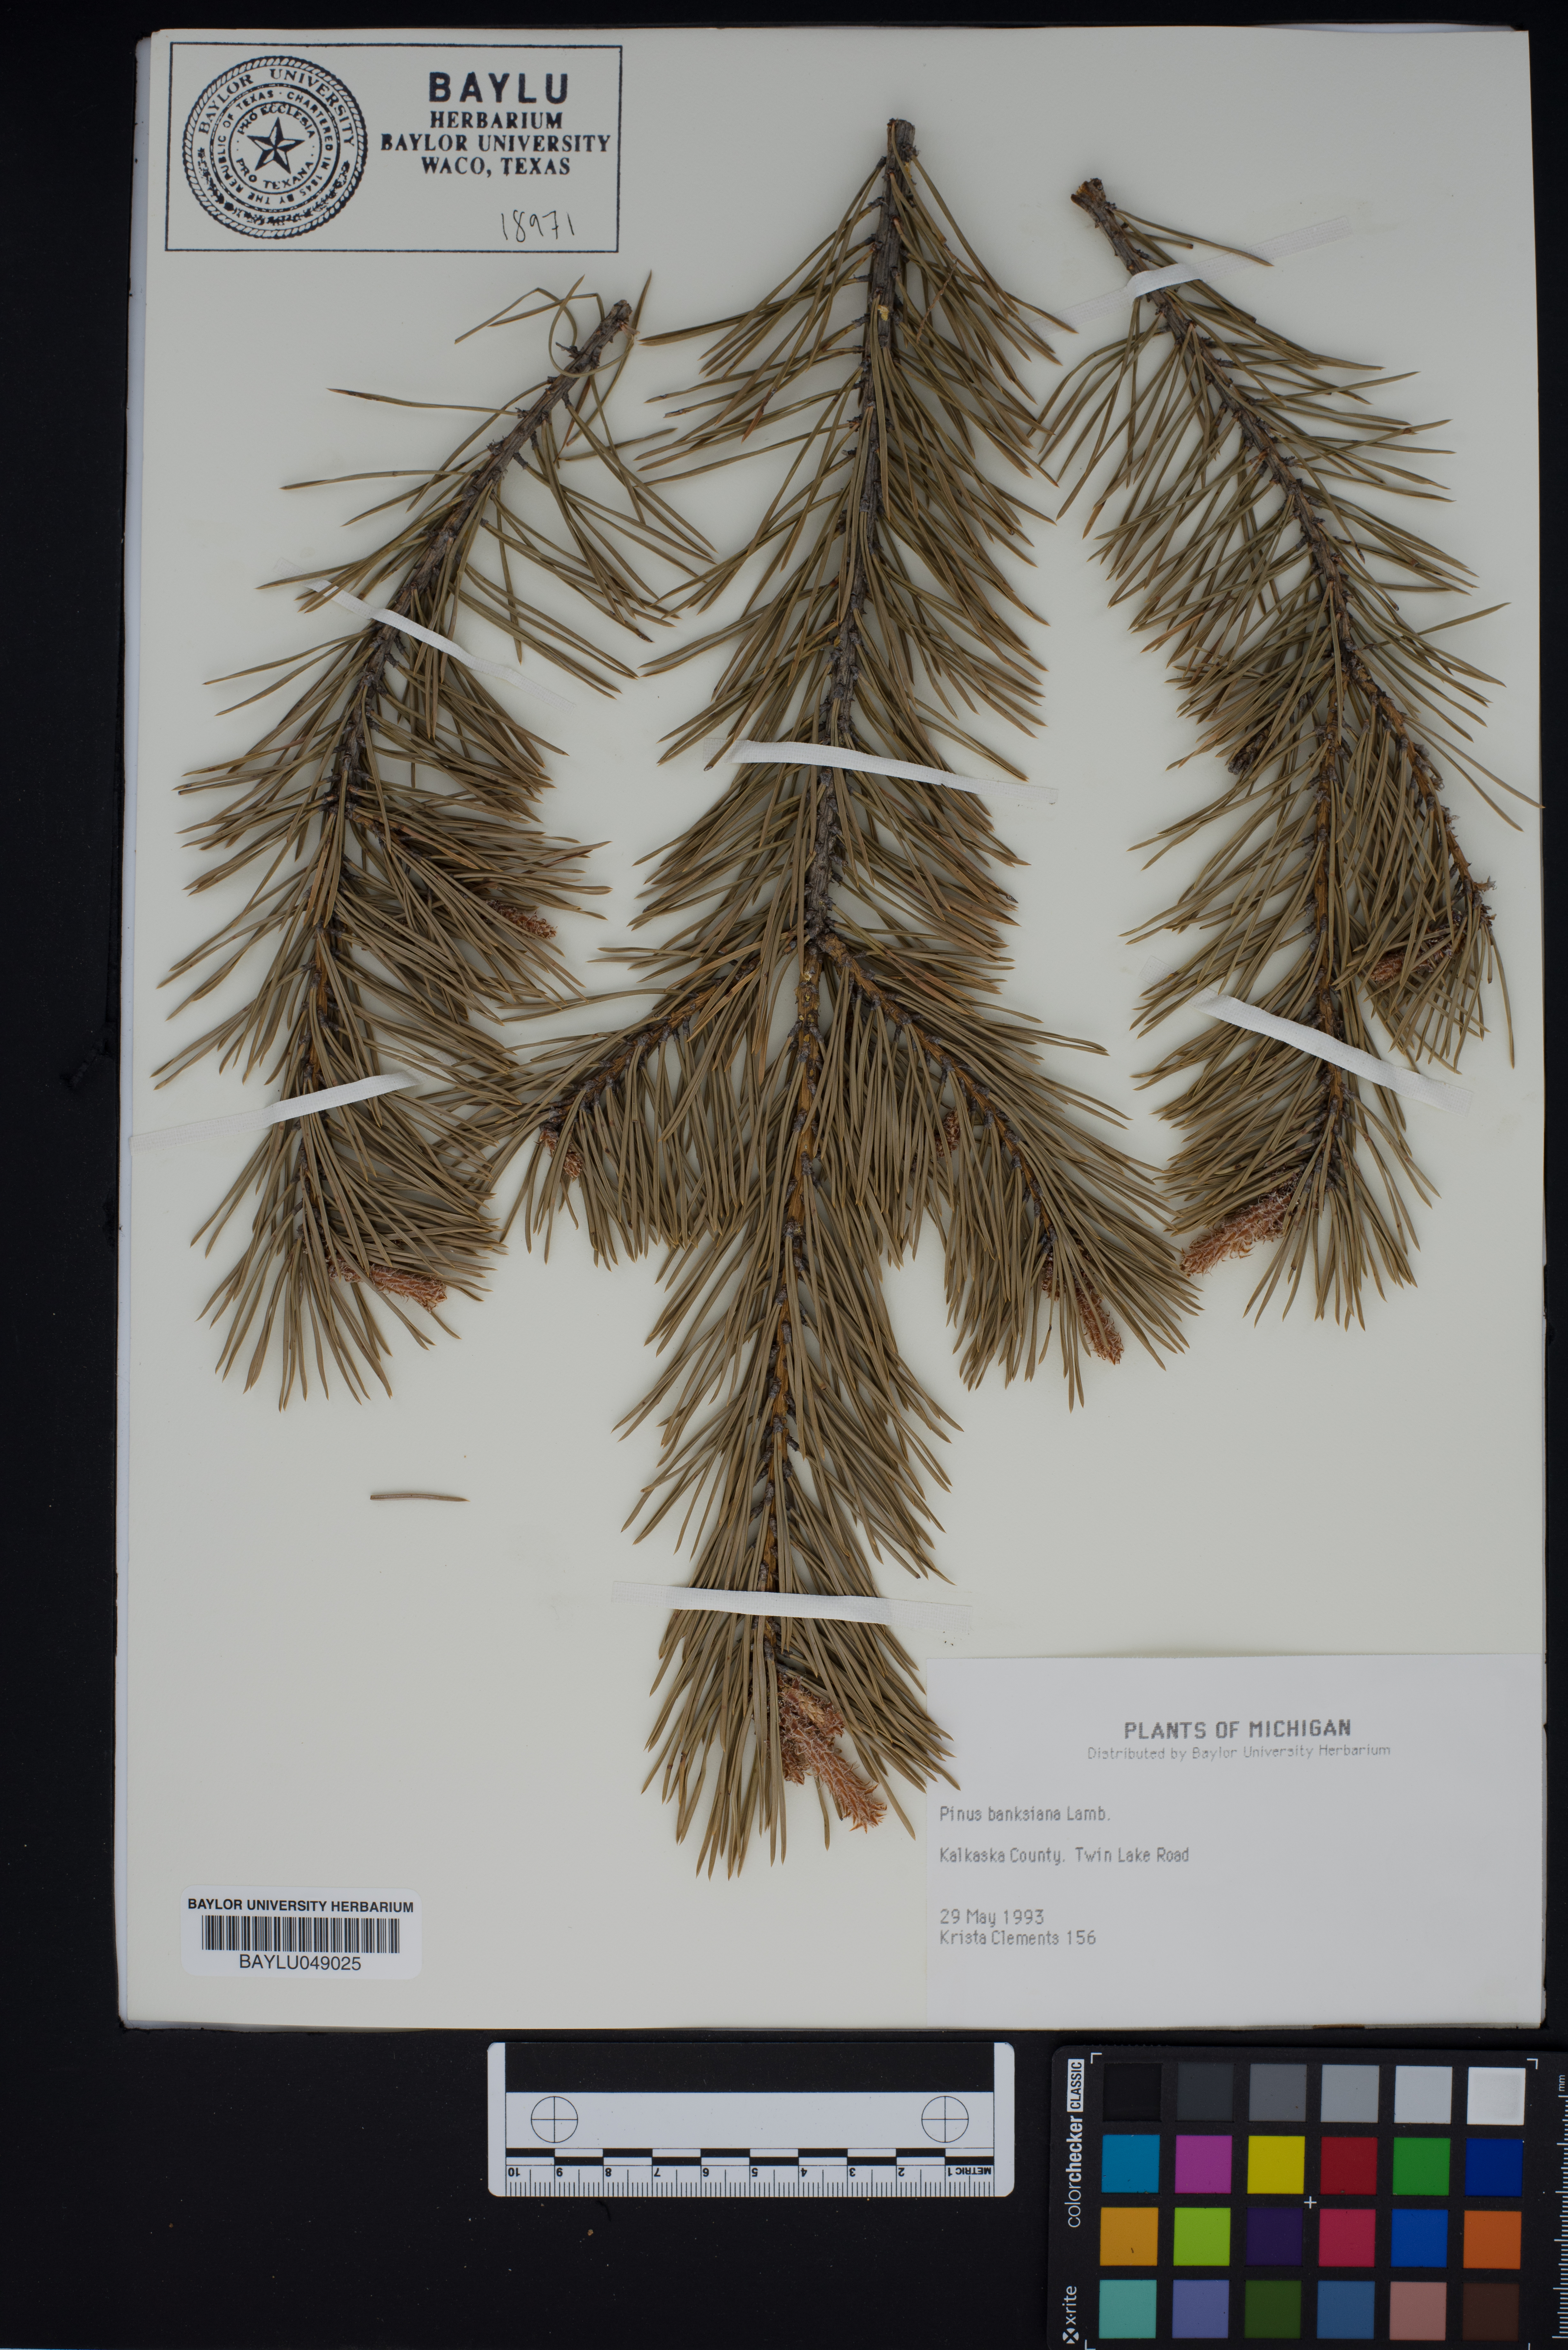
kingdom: Plantae
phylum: Tracheophyta
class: Pinopsida
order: Pinales
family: Pinaceae
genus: Pinus
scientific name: Pinus banksiana
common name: Jack pine
